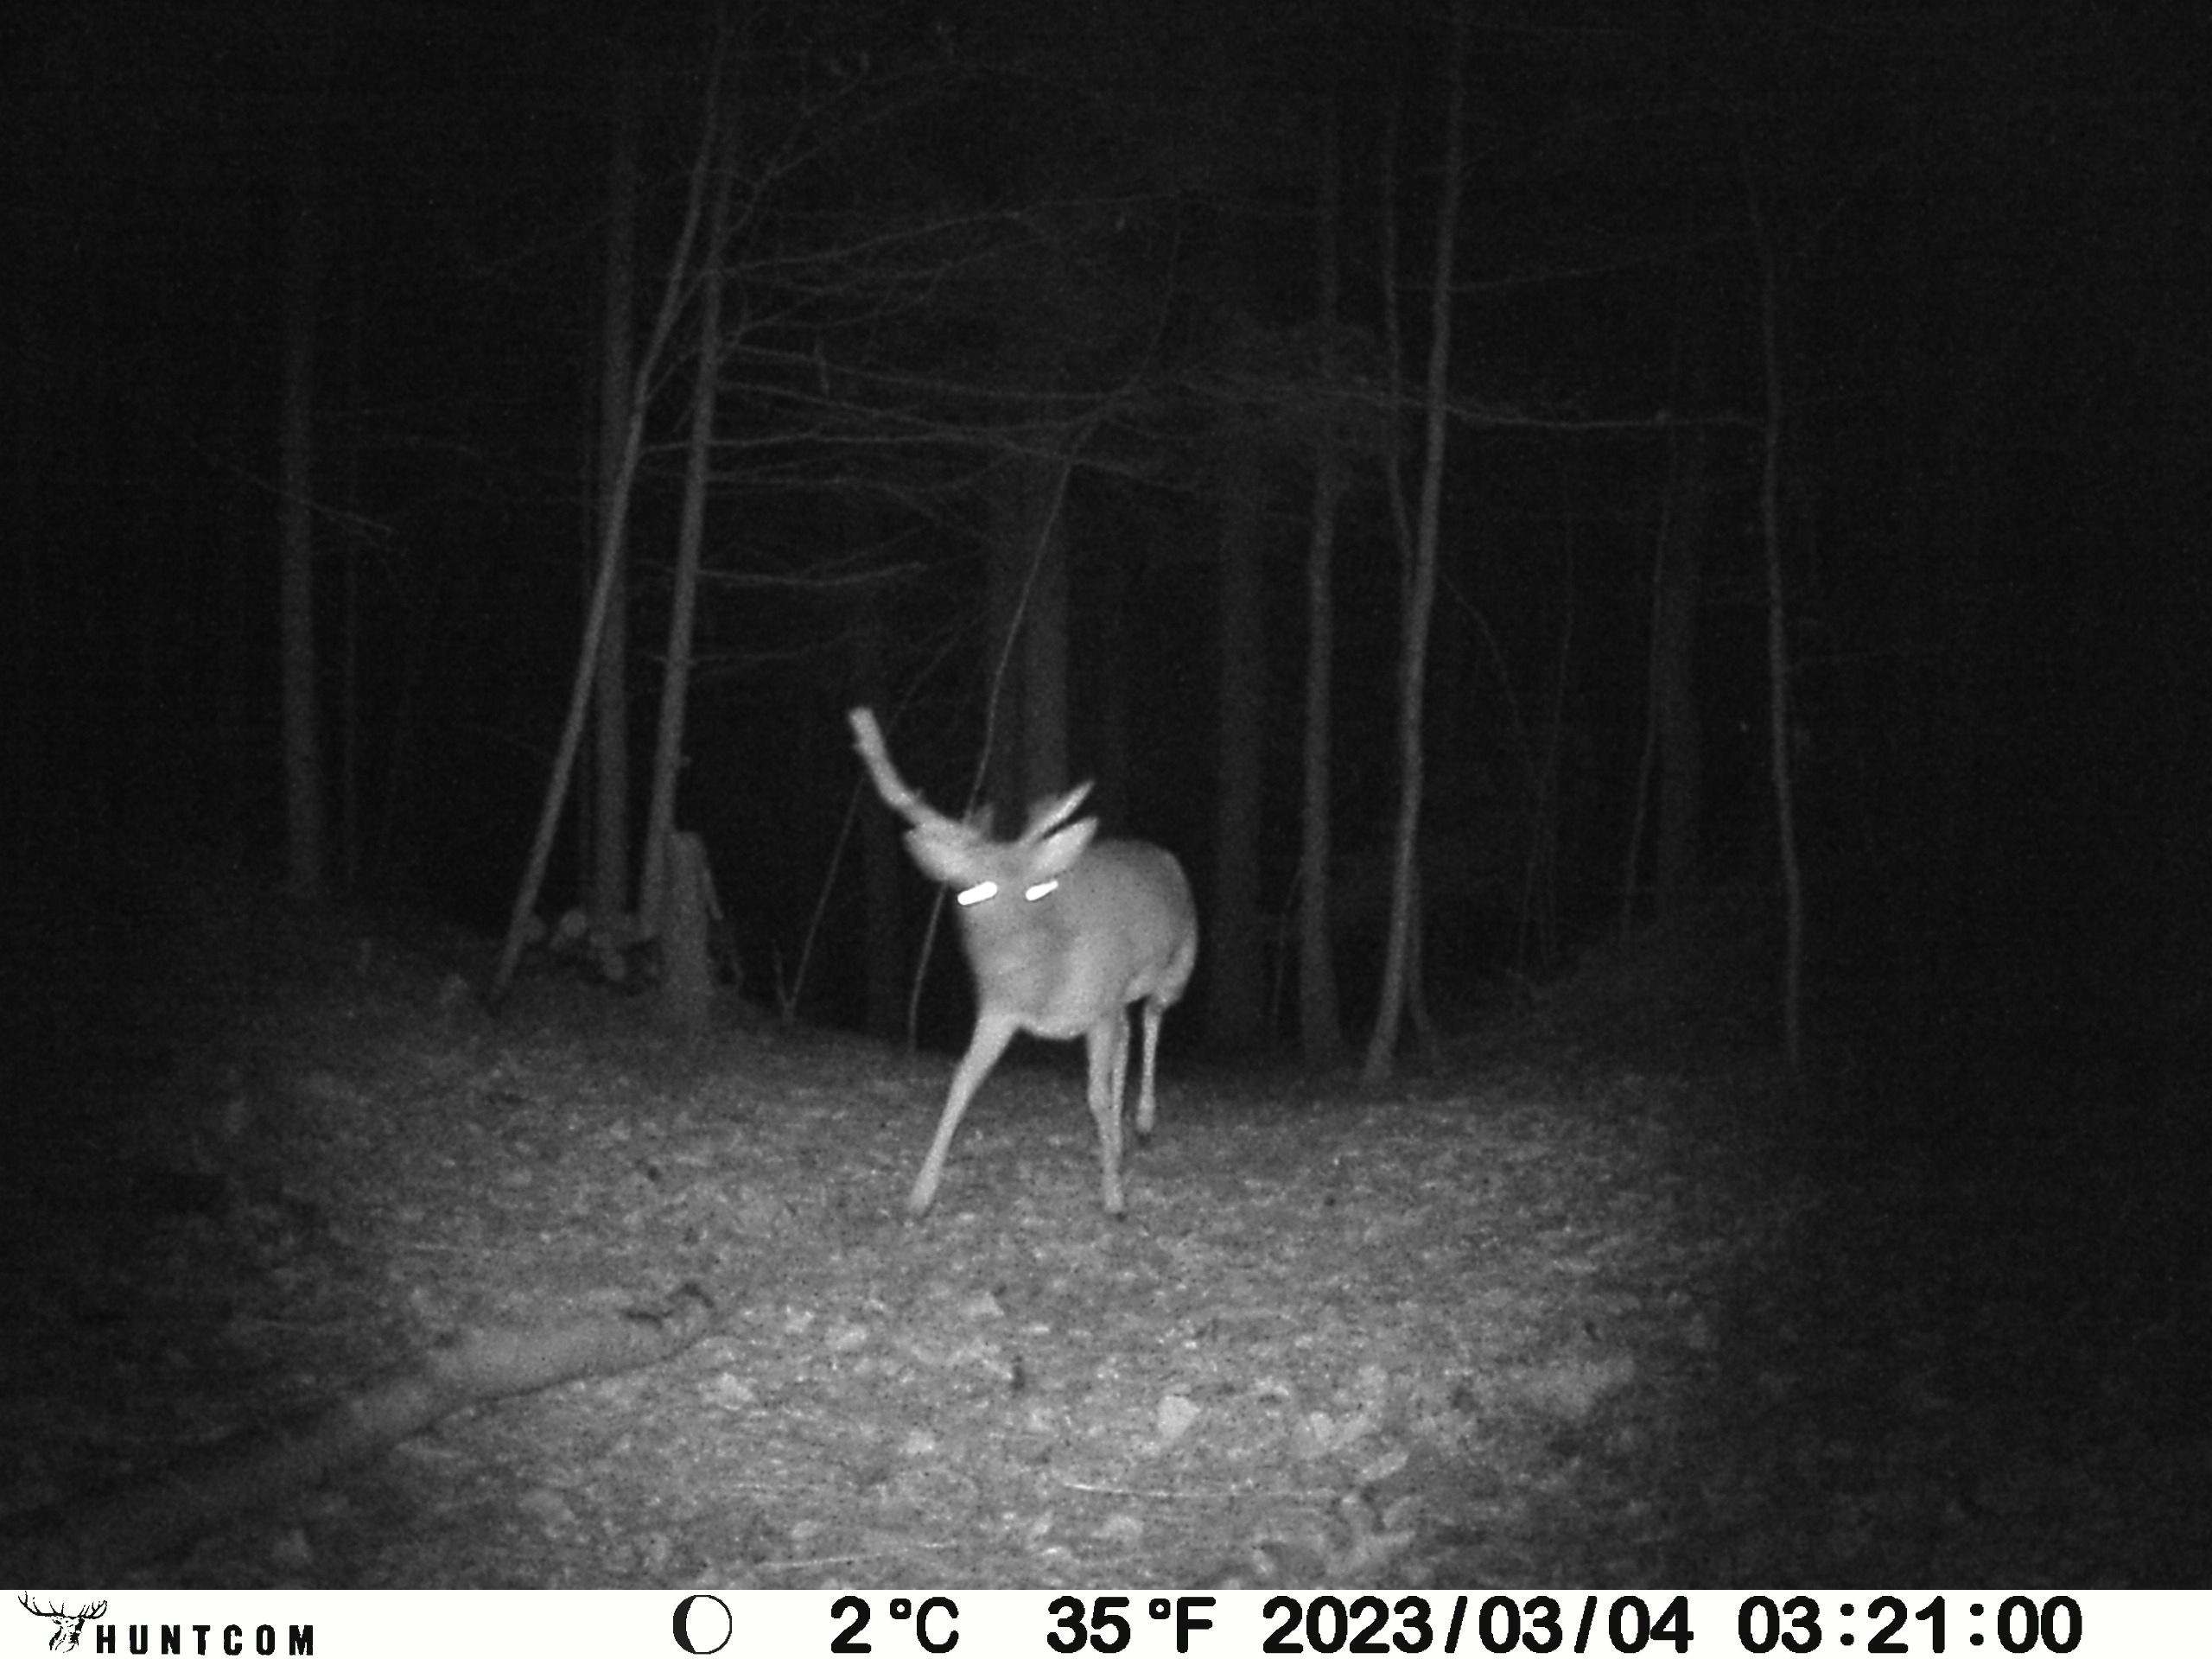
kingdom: Animalia
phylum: Chordata
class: Mammalia
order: Artiodactyla
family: Cervidae
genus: Dama
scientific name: Dama dama
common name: Dådyr
